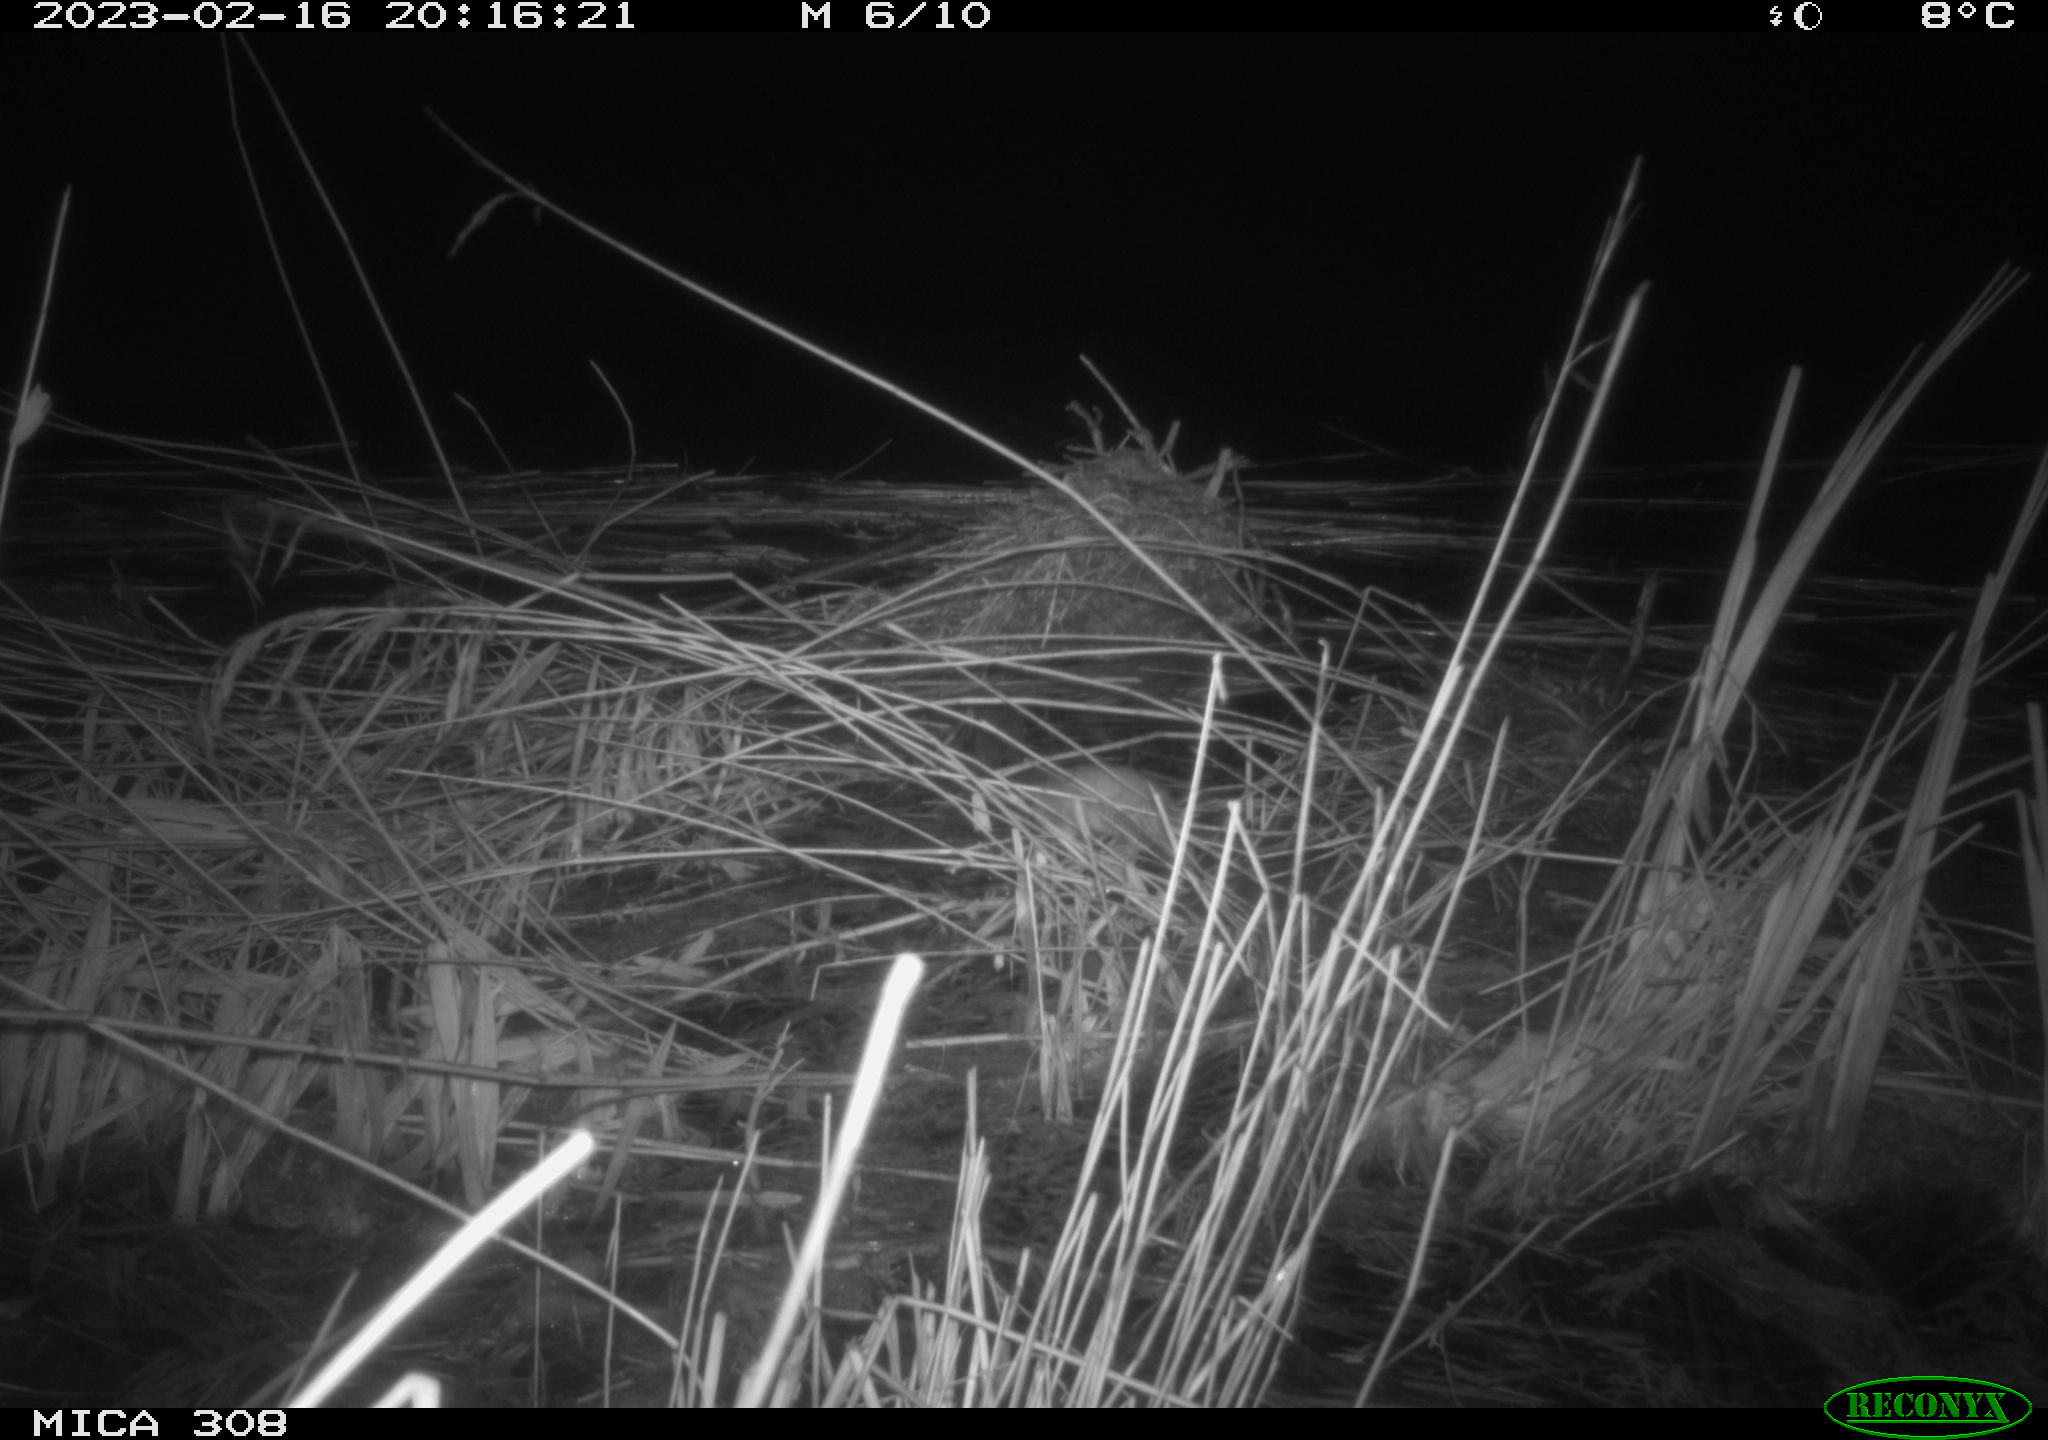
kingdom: Animalia
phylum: Chordata
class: Mammalia
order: Rodentia
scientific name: Rodentia
